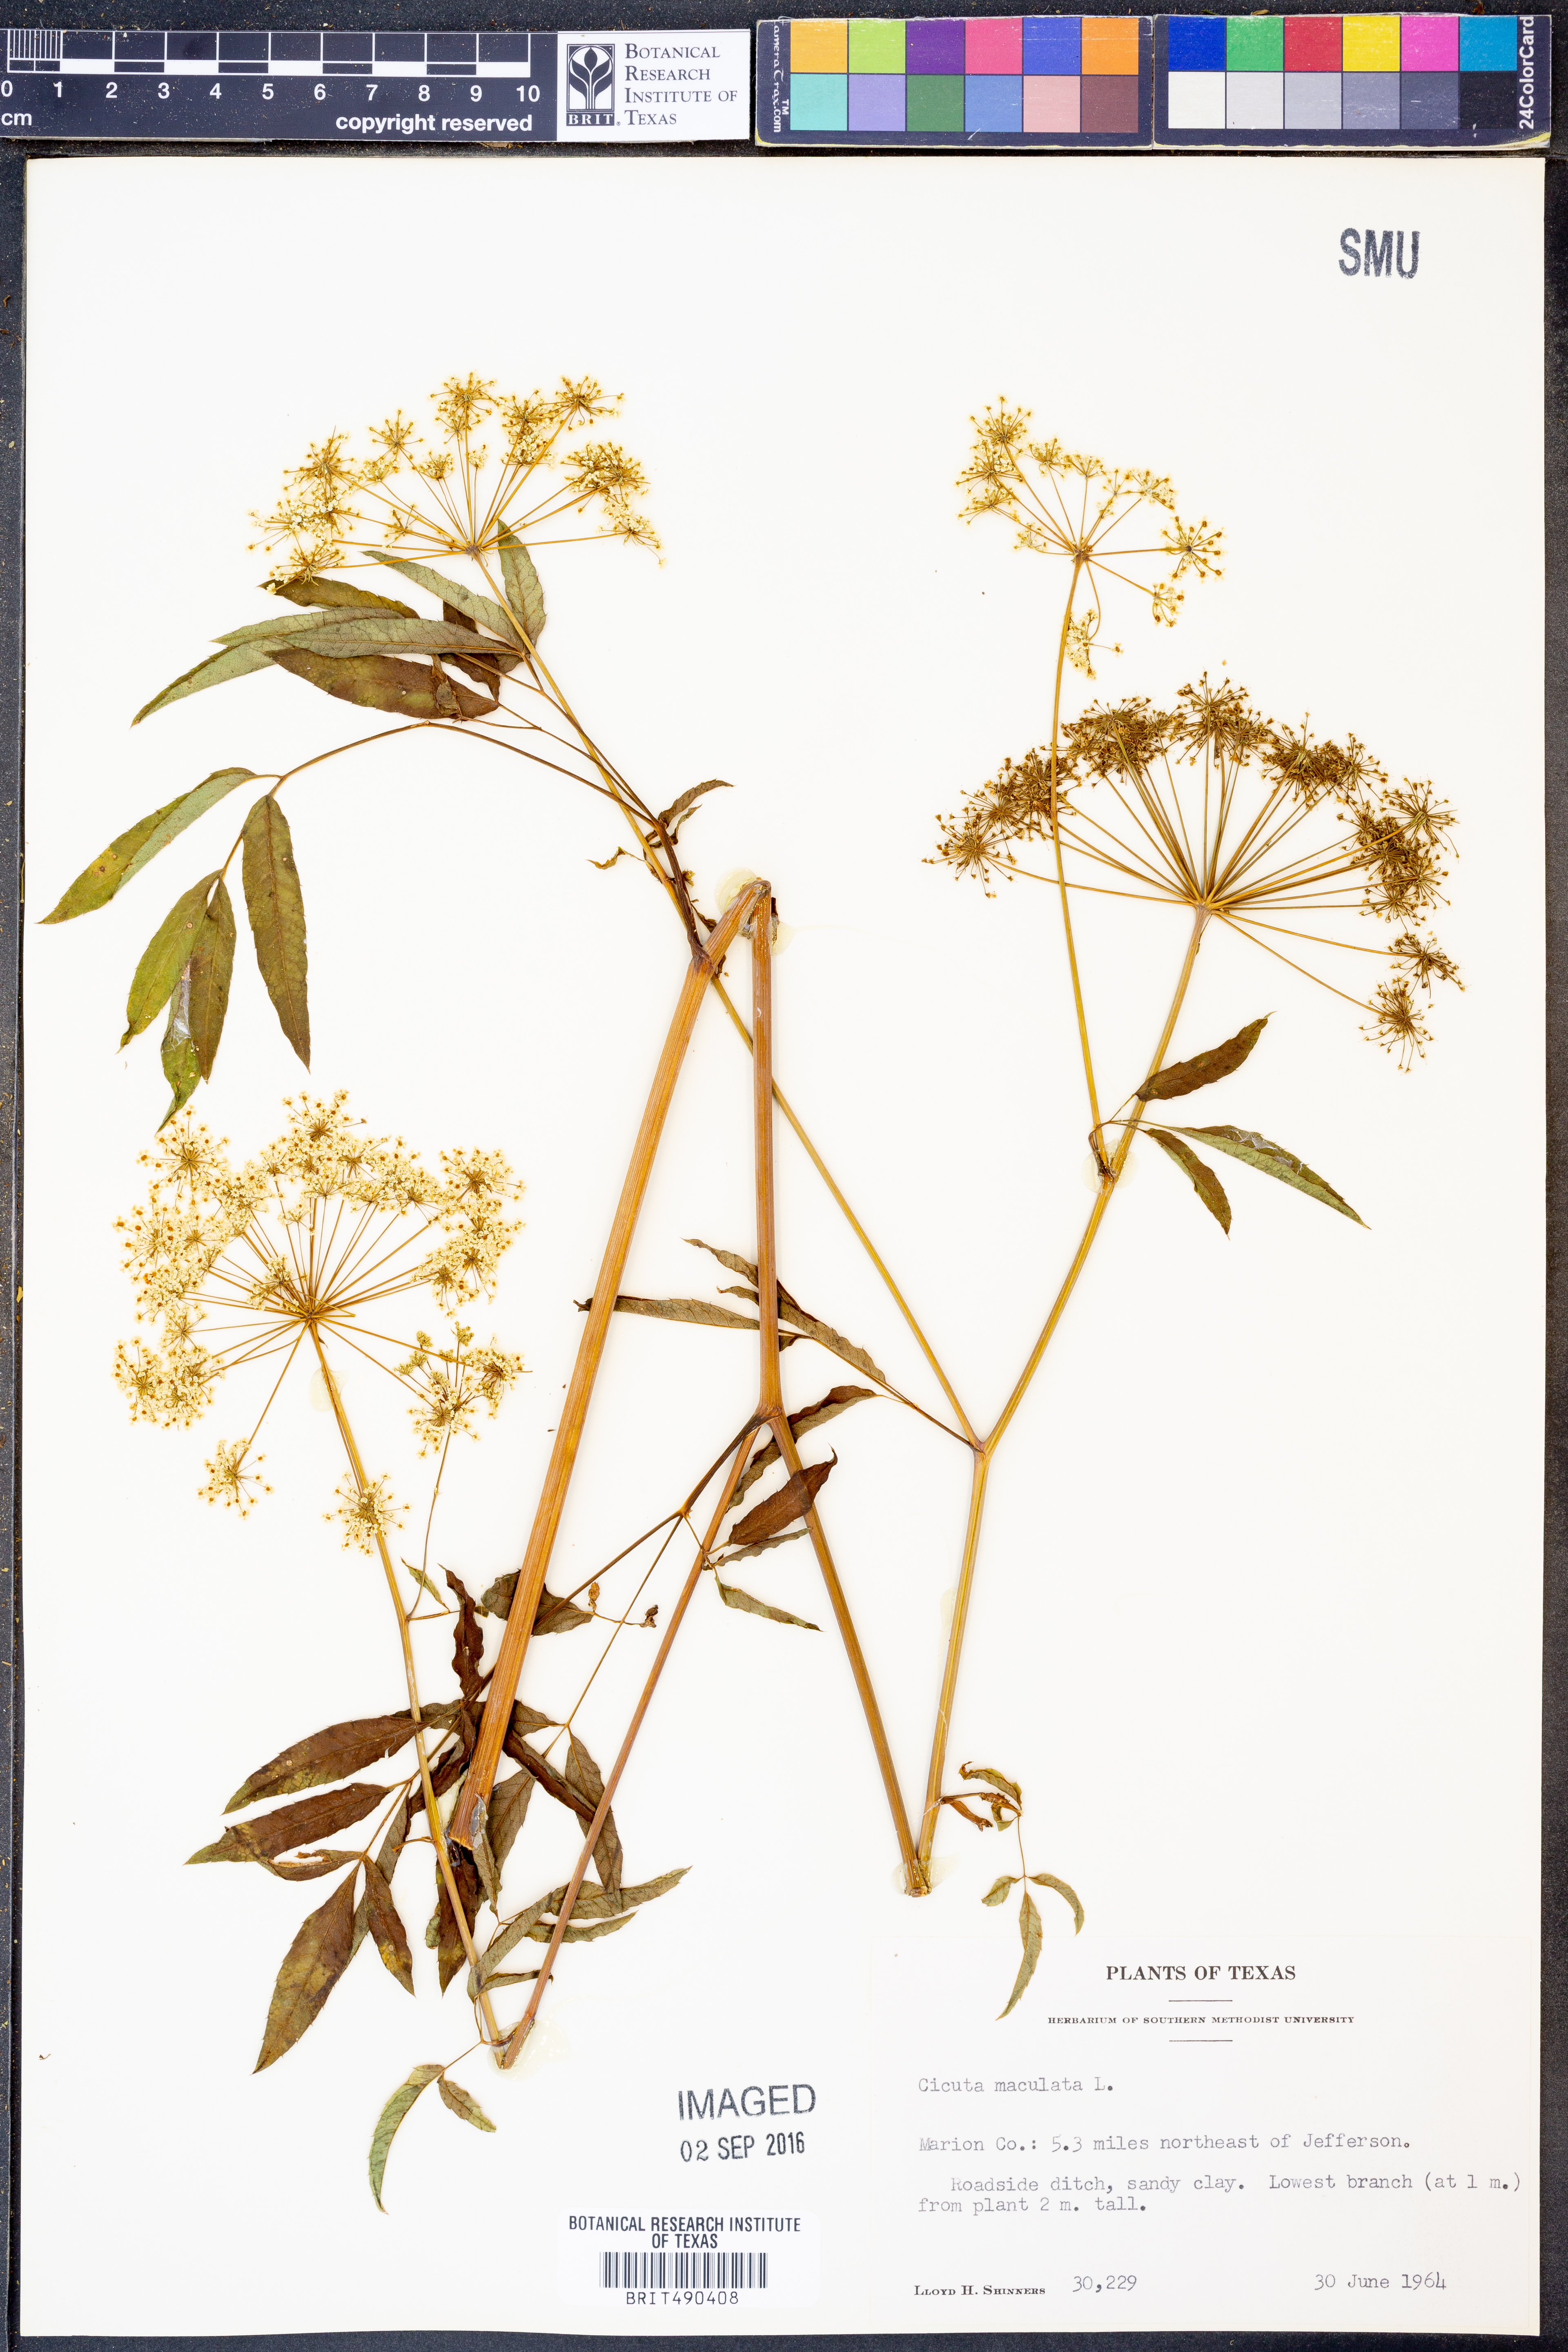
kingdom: Plantae
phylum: Tracheophyta
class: Magnoliopsida
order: Apiales
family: Apiaceae
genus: Cicuta
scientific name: Cicuta maculata
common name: Spotted cowbane
